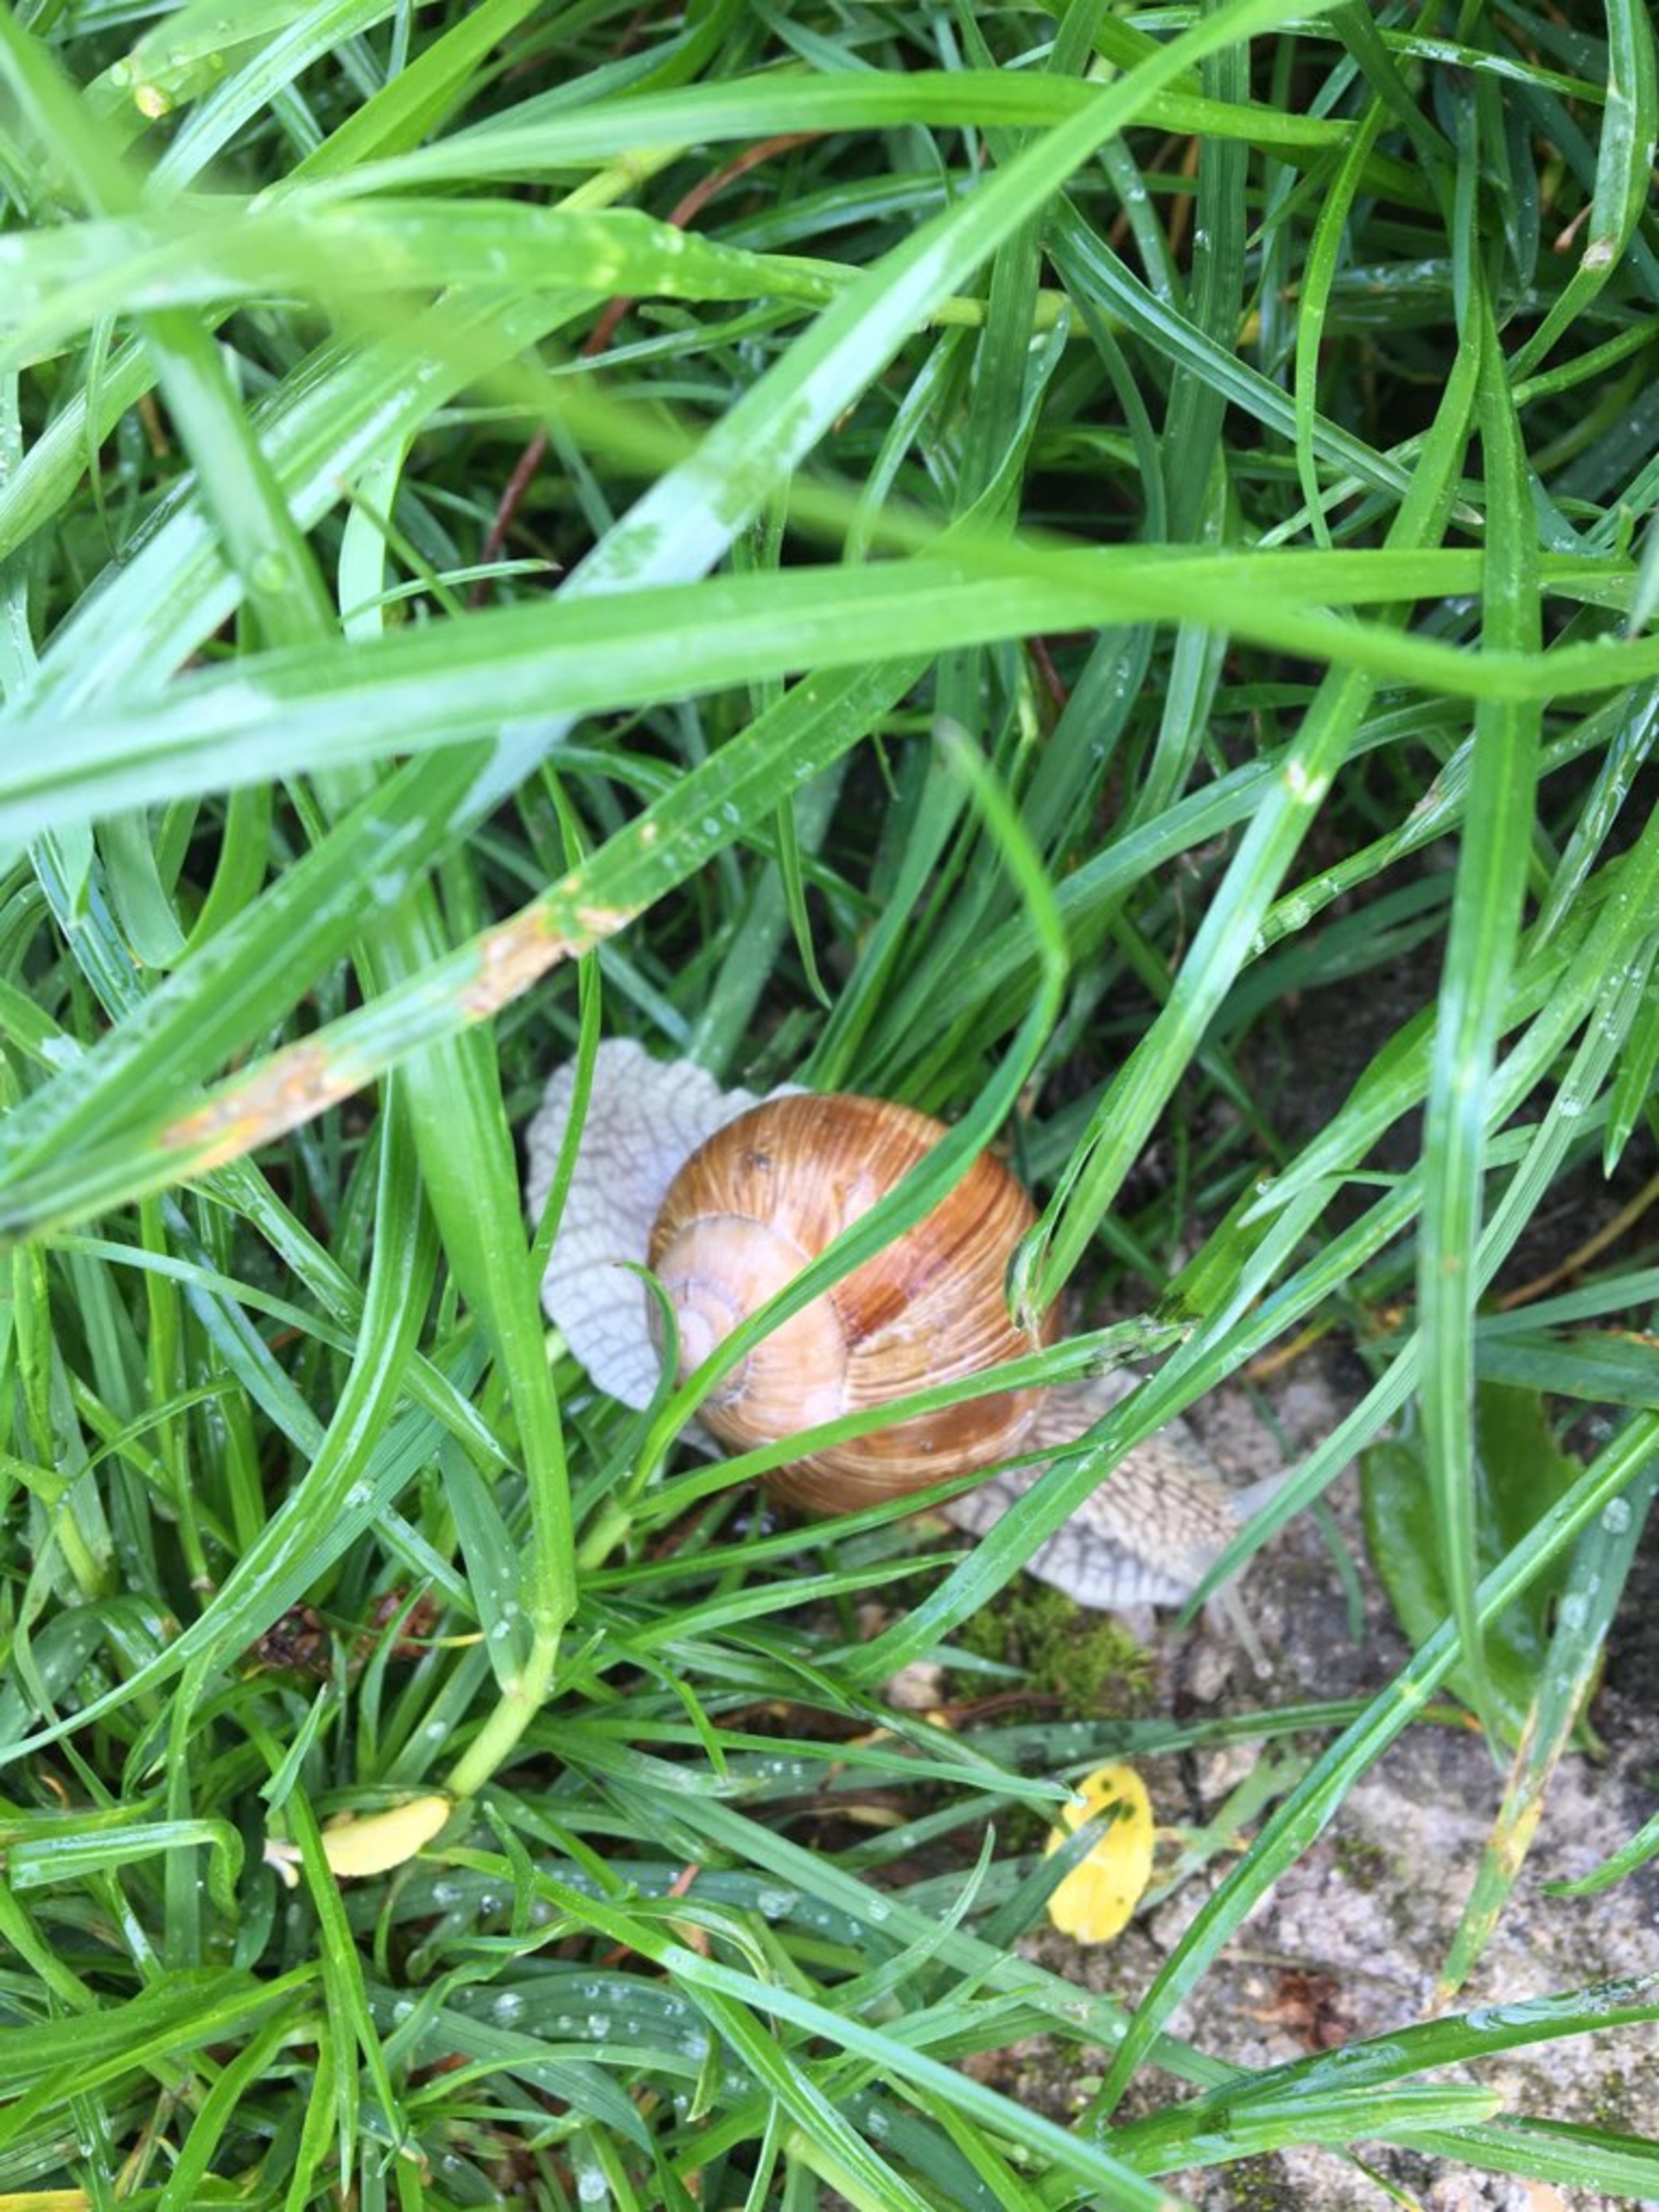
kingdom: Animalia
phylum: Mollusca
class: Gastropoda
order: Stylommatophora
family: Helicidae
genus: Helix
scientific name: Helix pomatia
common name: Vinbjergsnegl
